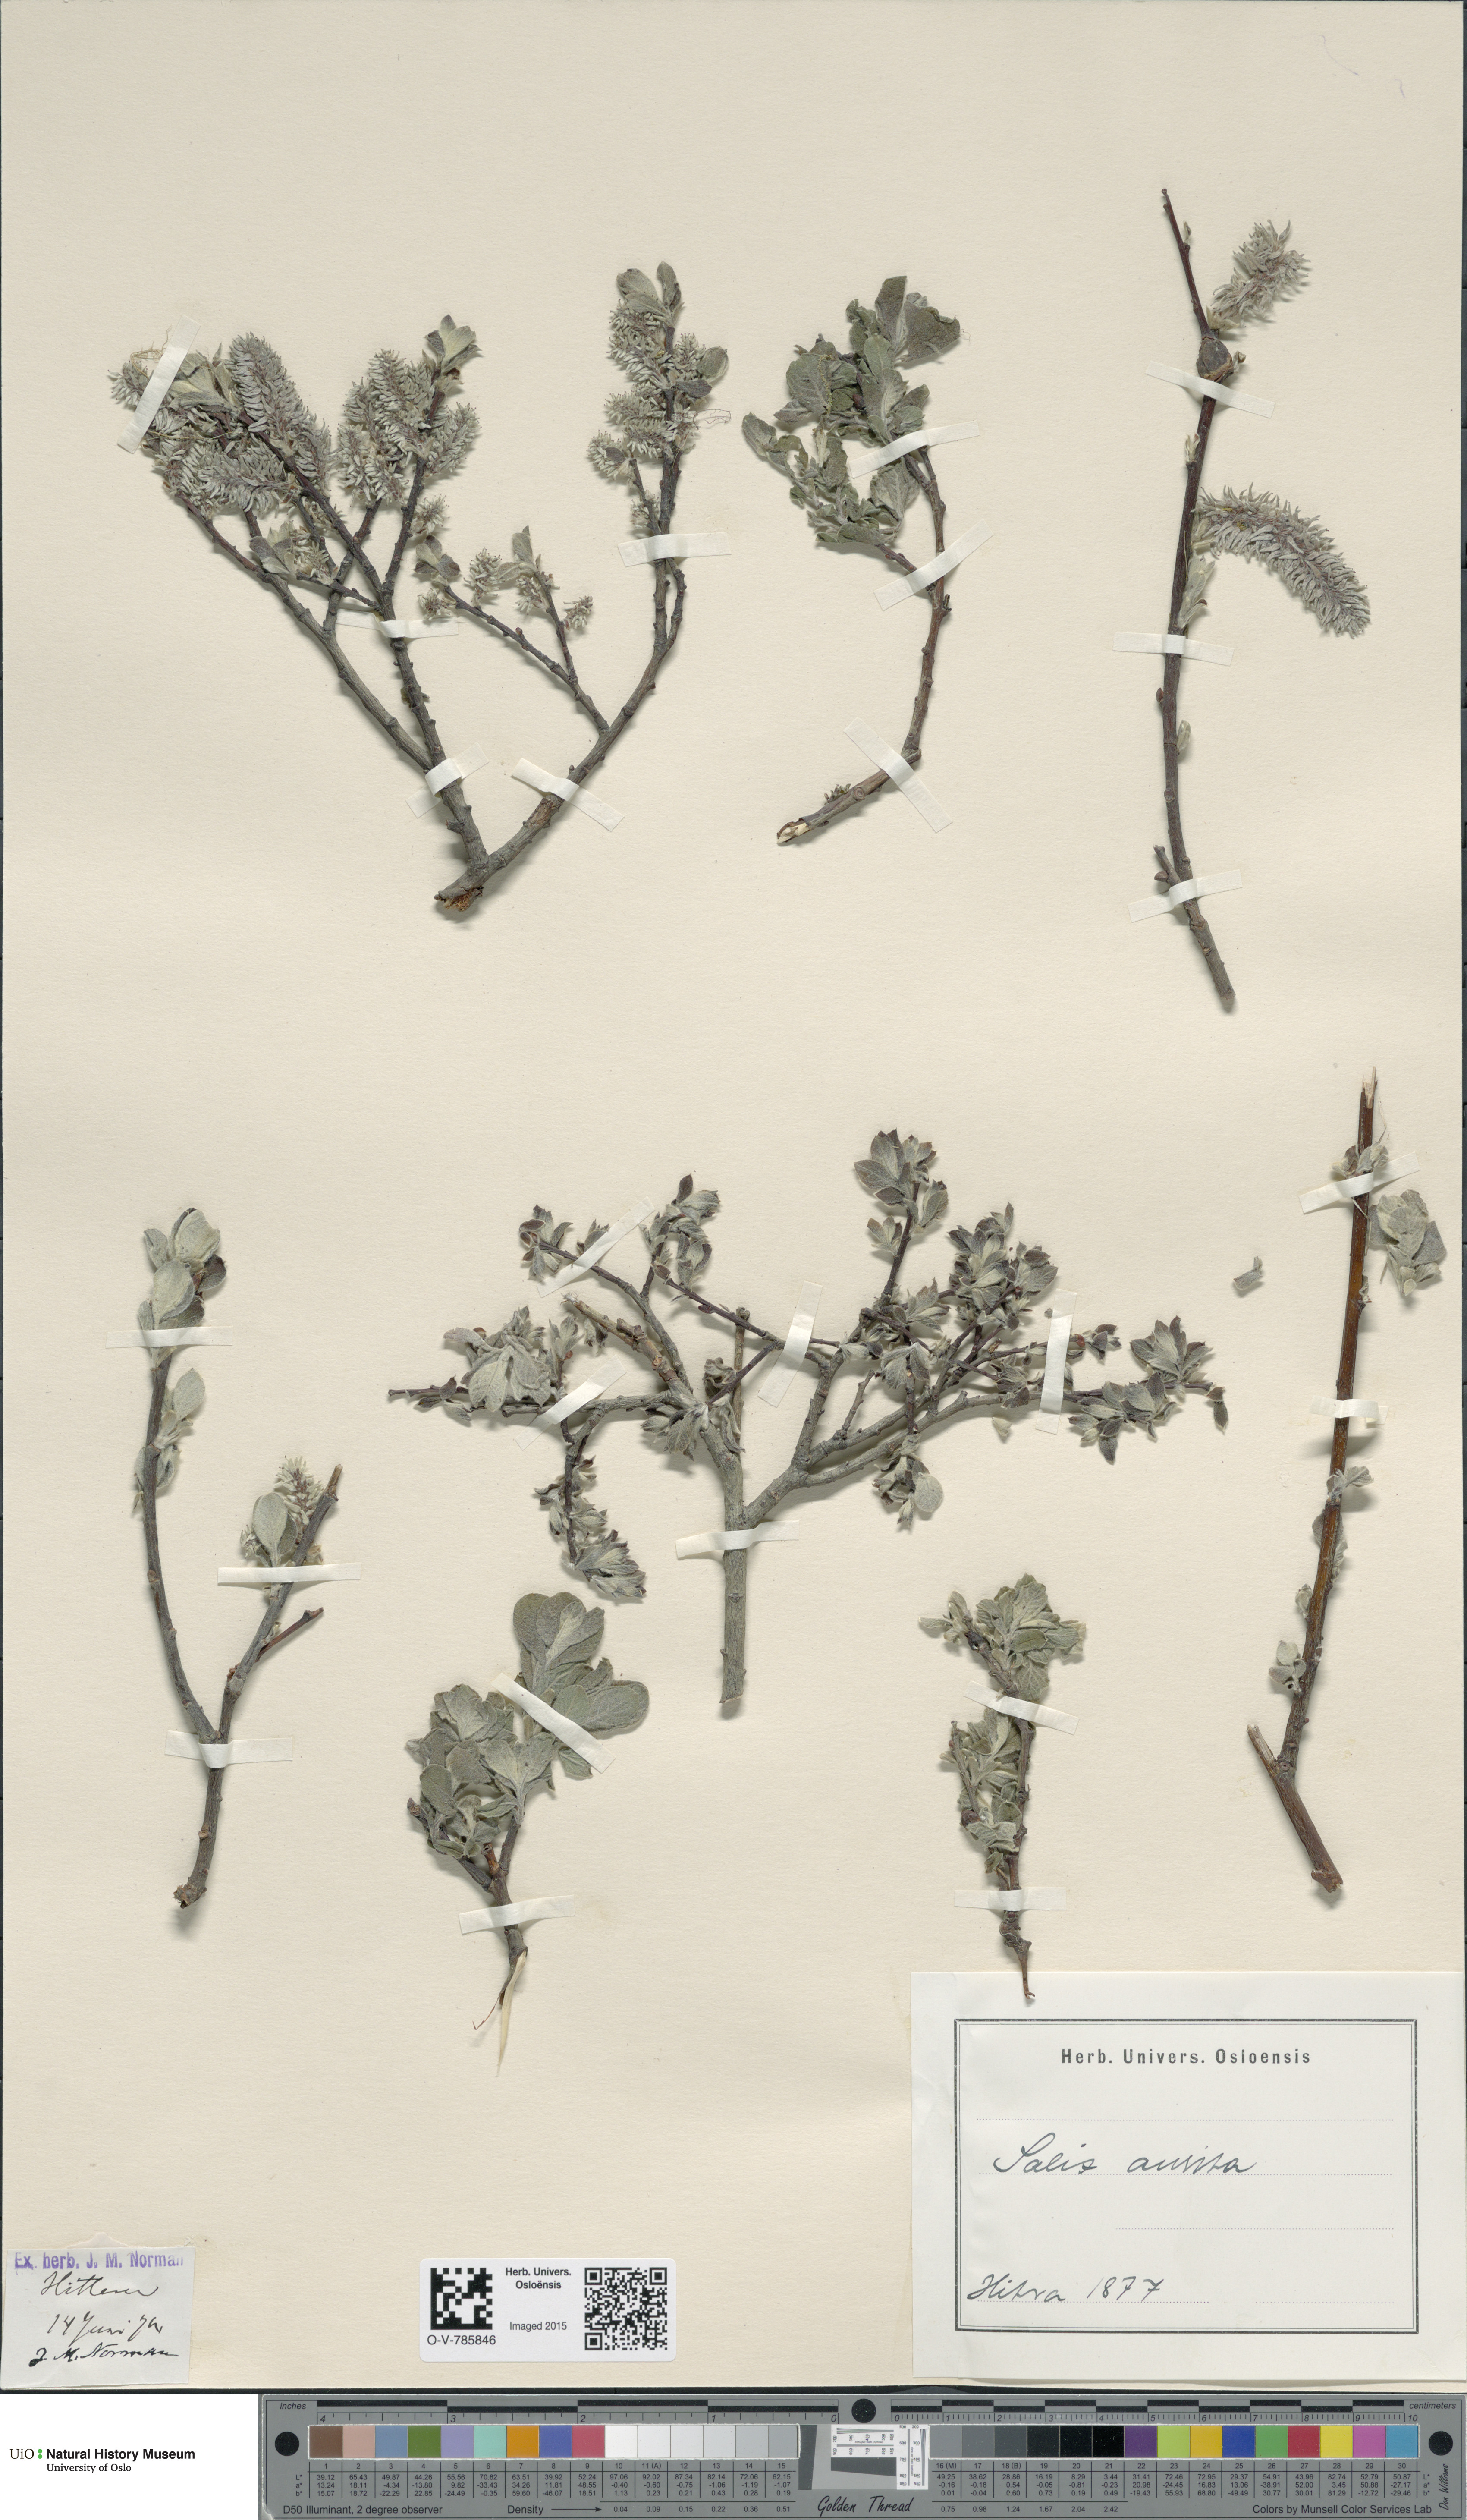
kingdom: Plantae
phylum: Tracheophyta
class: Magnoliopsida
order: Malpighiales
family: Salicaceae
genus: Salix
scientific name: Salix aurita
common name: Eared willow
